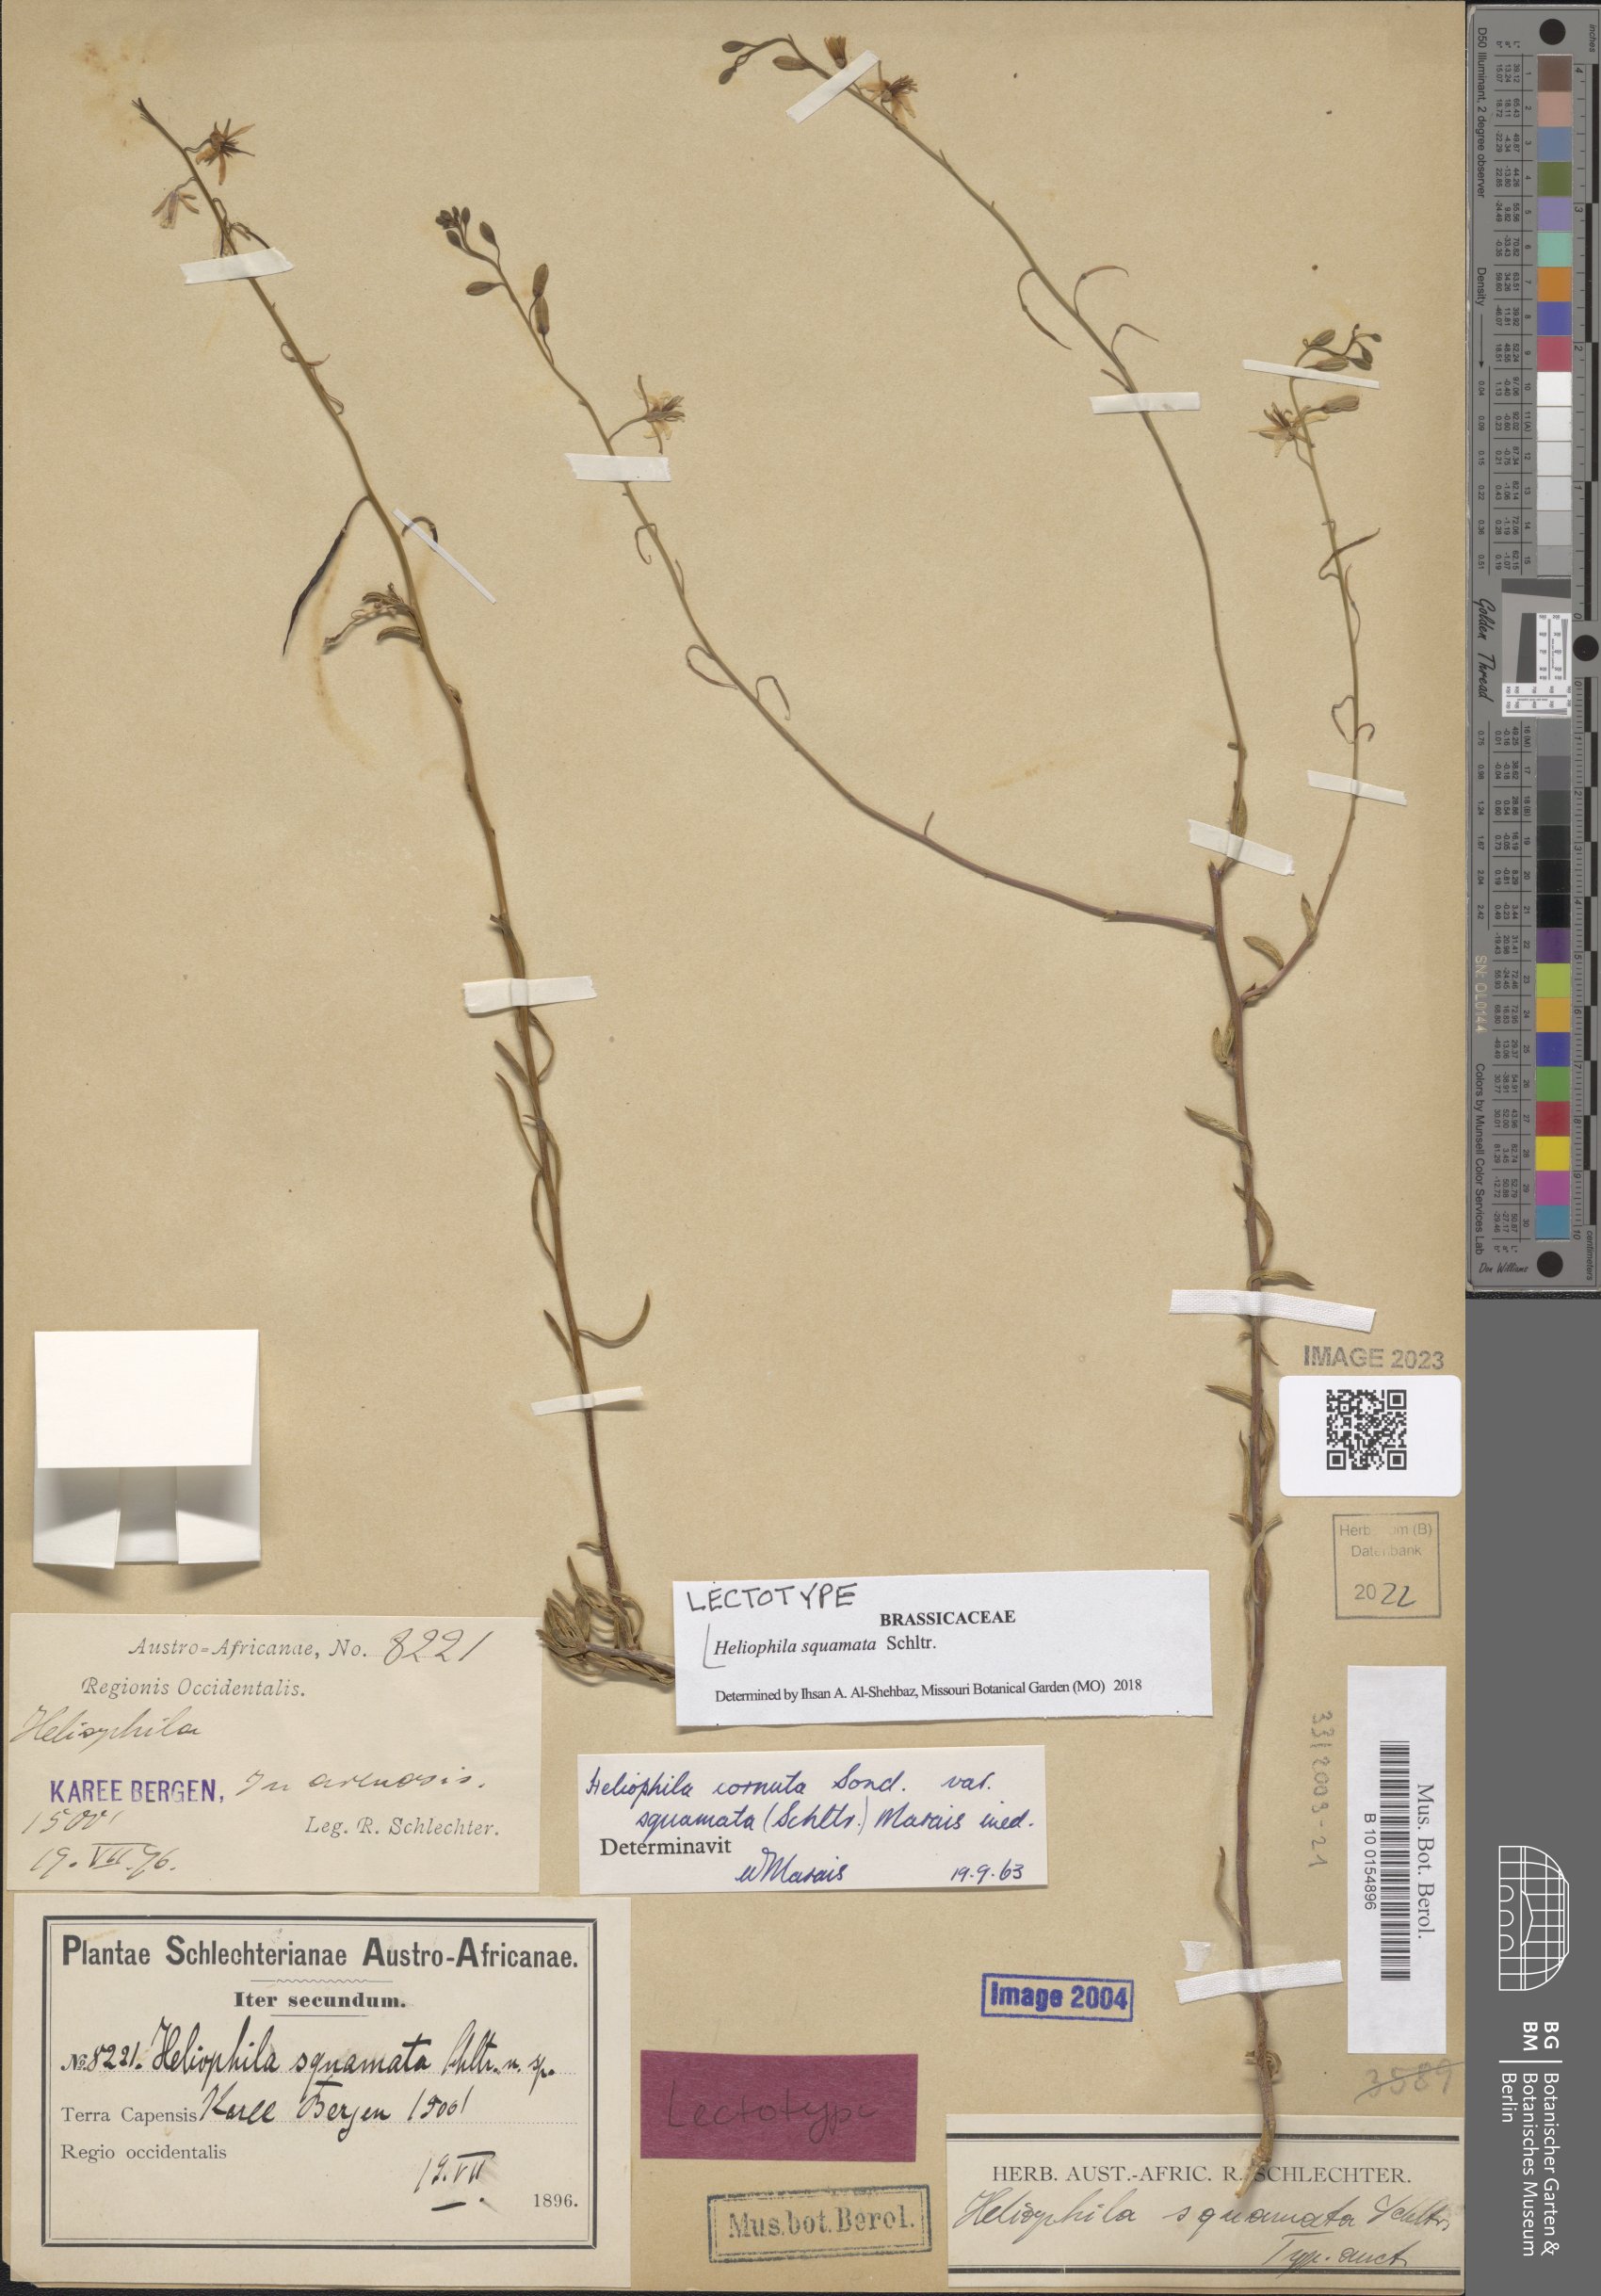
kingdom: Plantae
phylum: Tracheophyta
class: Magnoliopsida
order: Brassicales
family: Brassicaceae
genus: Heliophila
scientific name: Heliophila cornuta
